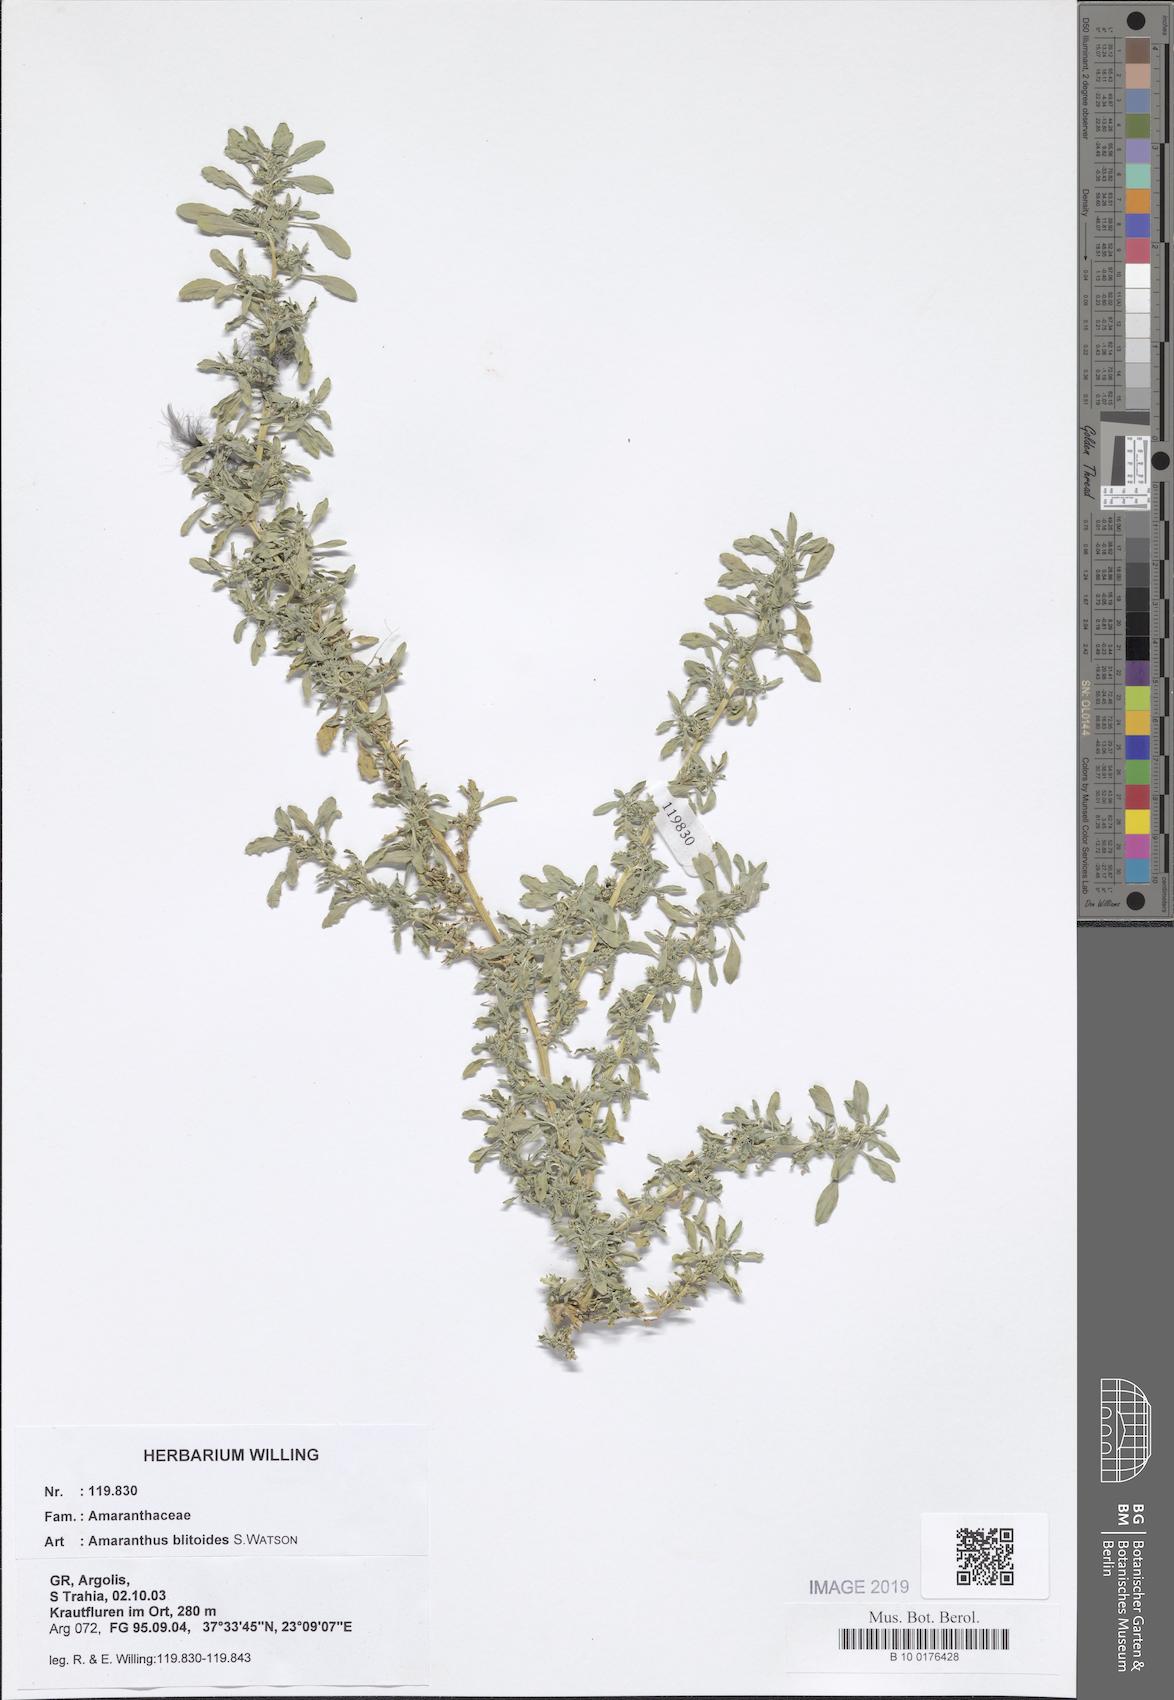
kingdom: Plantae
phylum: Tracheophyta
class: Magnoliopsida
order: Caryophyllales
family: Amaranthaceae
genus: Amaranthus
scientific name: Amaranthus blitoides
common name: Prostrate pigweed
